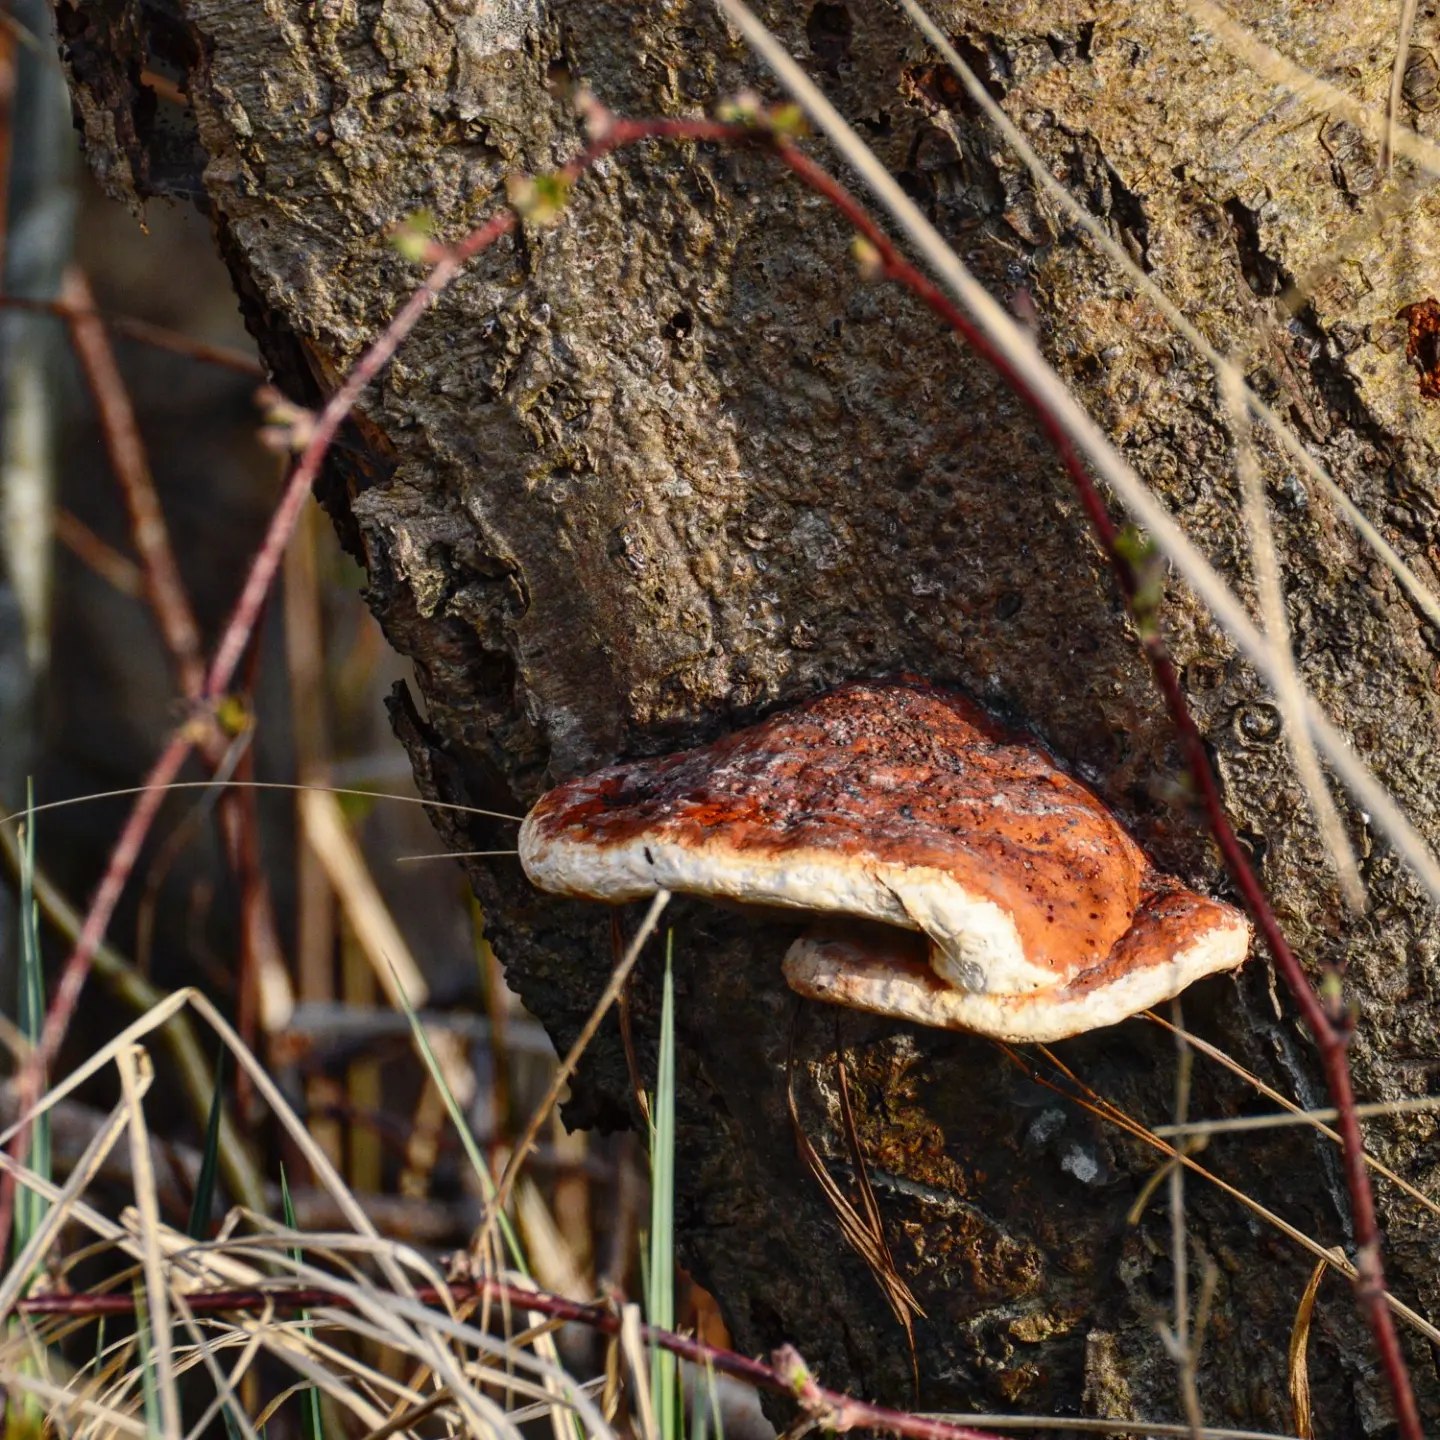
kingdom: Fungi
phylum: Basidiomycota
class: Agaricomycetes
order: Polyporales
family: Fomitopsidaceae
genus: Fomitopsis
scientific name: Fomitopsis pinicola
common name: randbæltet hovporesvamp
